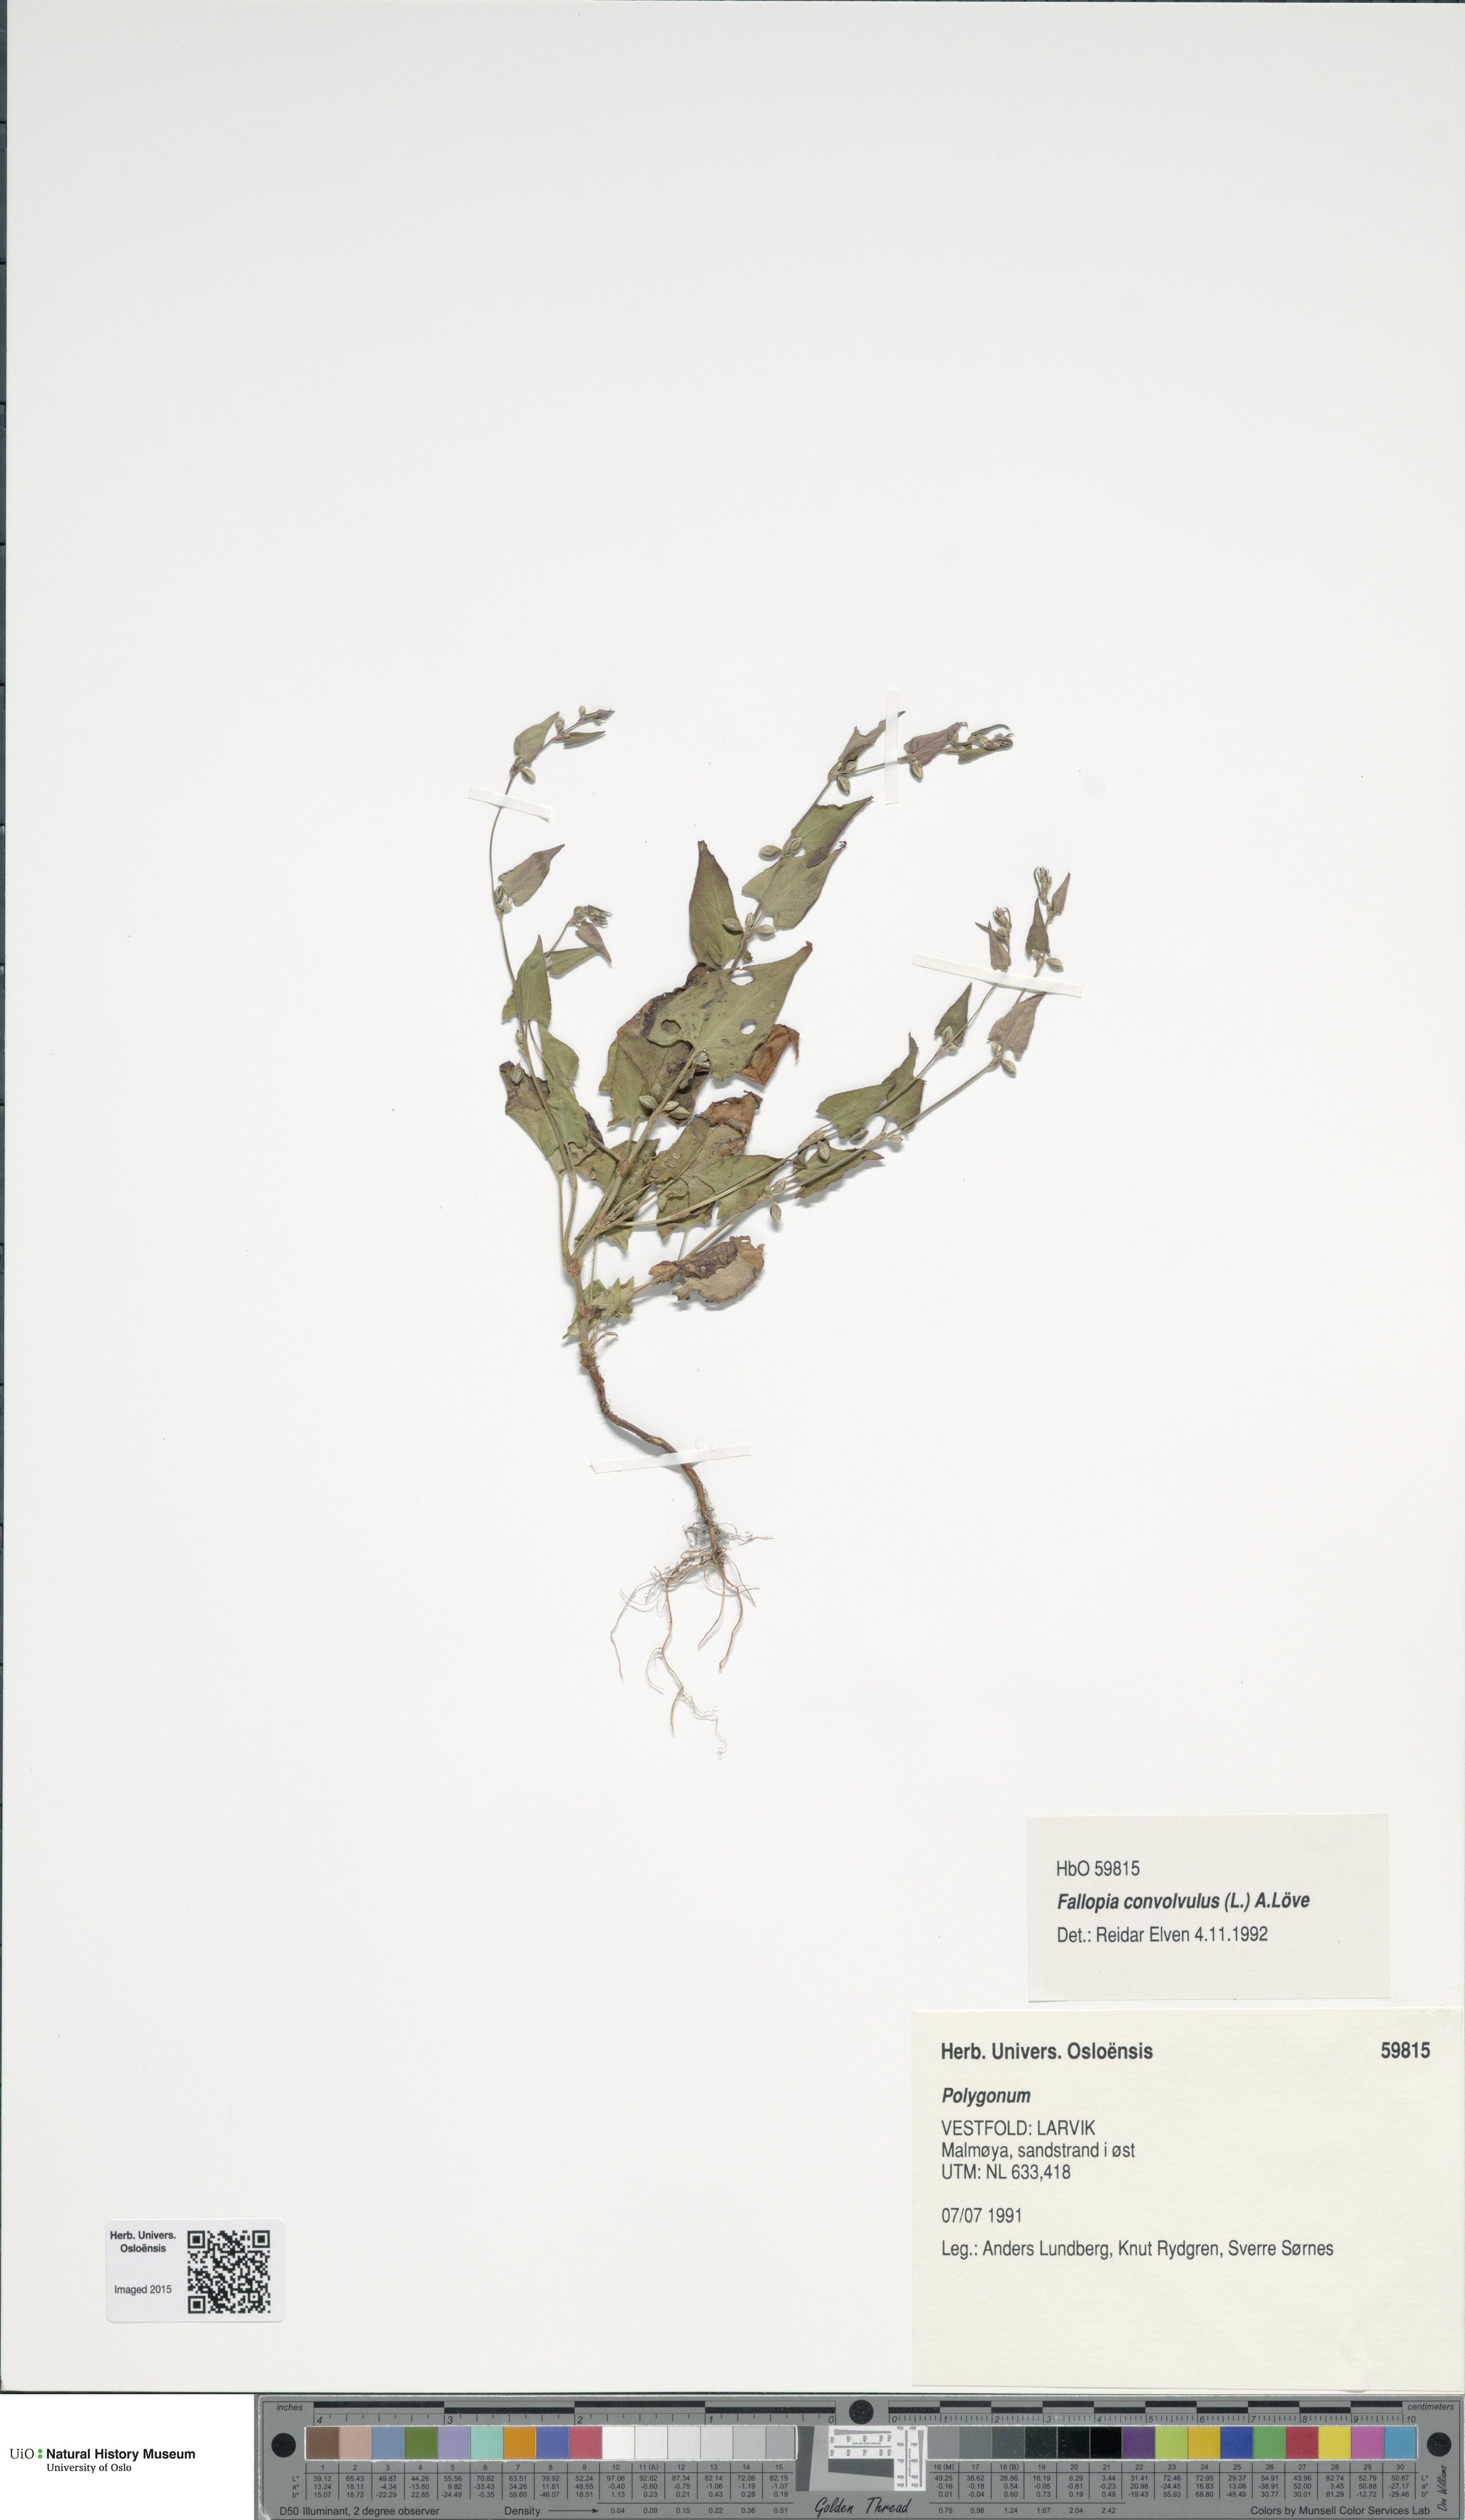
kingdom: Plantae
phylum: Tracheophyta
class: Magnoliopsida
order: Caryophyllales
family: Polygonaceae
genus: Fallopia
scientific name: Fallopia convolvulus
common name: Black bindweed
